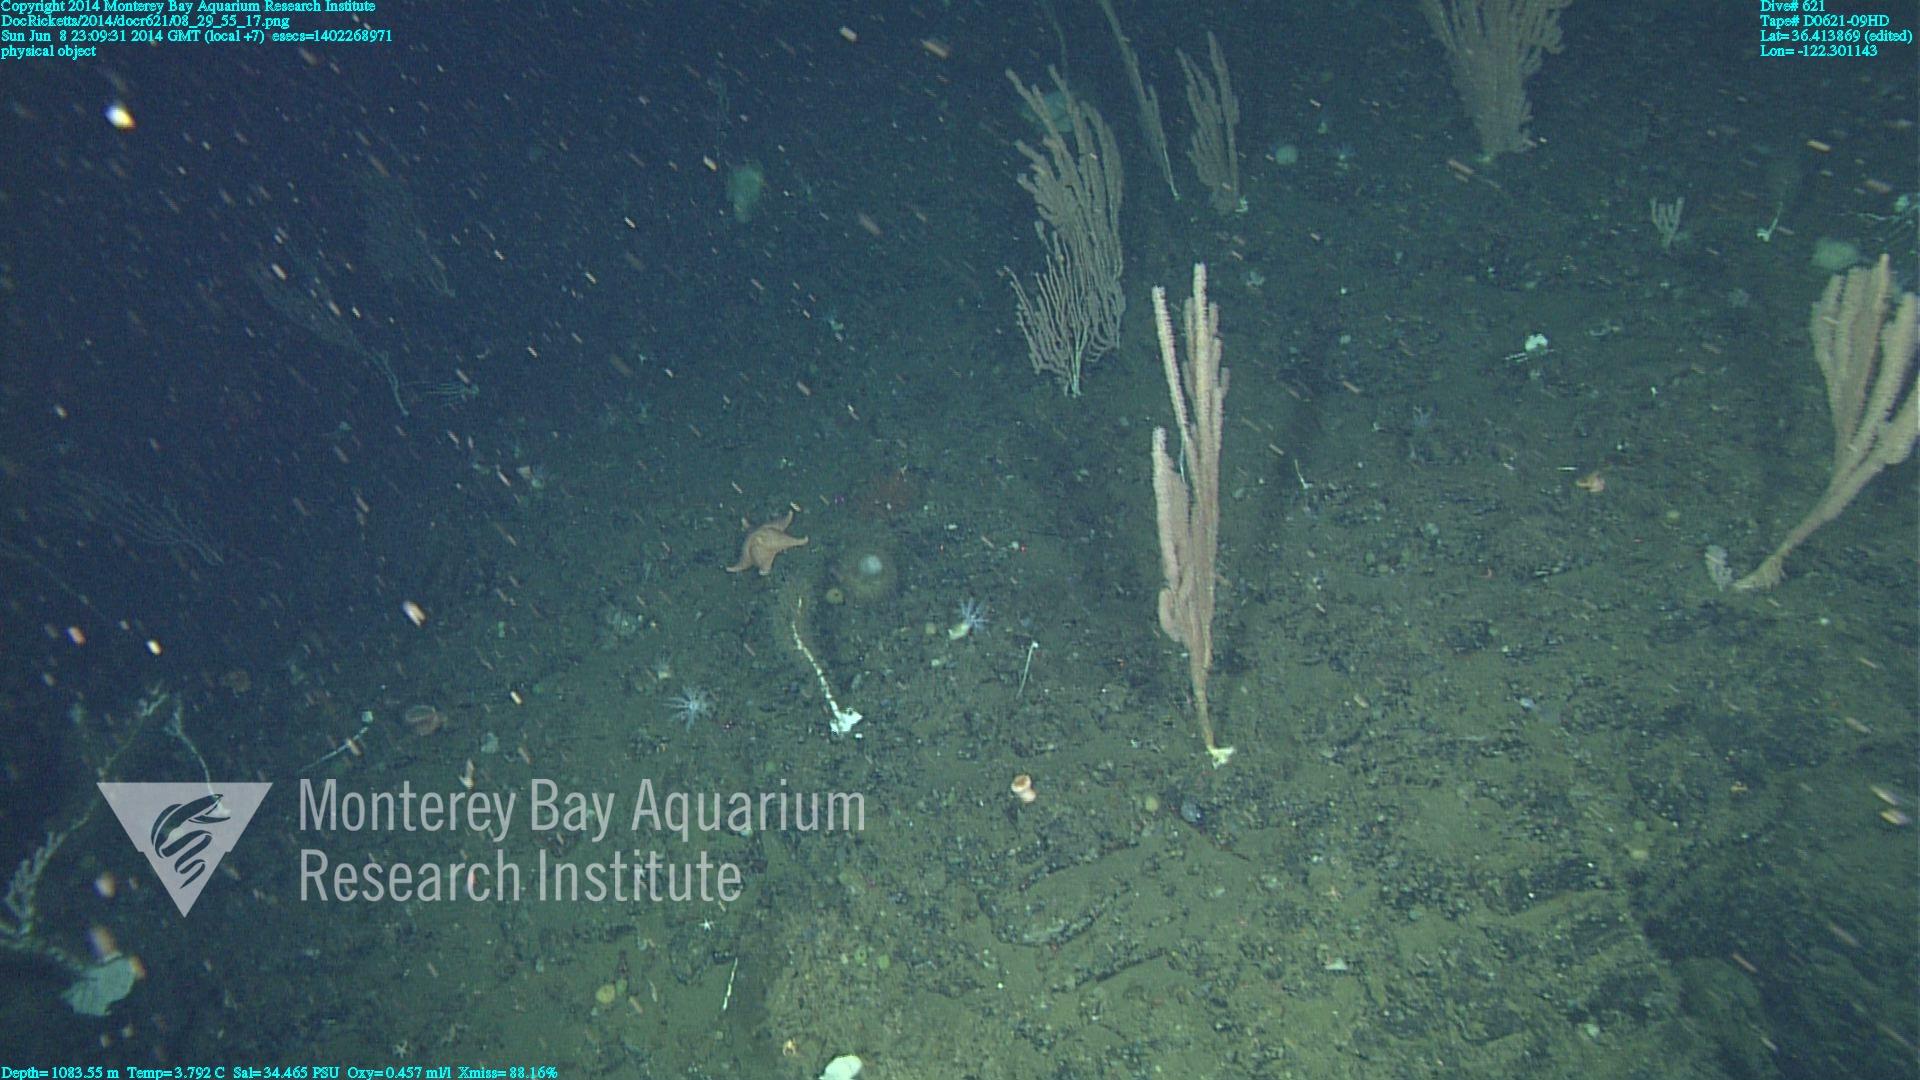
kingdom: Animalia
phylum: Cnidaria
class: Anthozoa
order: Scleralcyonacea
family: Keratoisididae
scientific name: Keratoisididae
